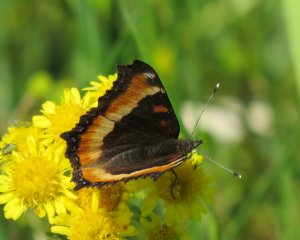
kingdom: Animalia
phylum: Arthropoda
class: Insecta
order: Lepidoptera
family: Nymphalidae
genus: Aglais
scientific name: Aglais milberti
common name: Milbert's Tortoiseshell
